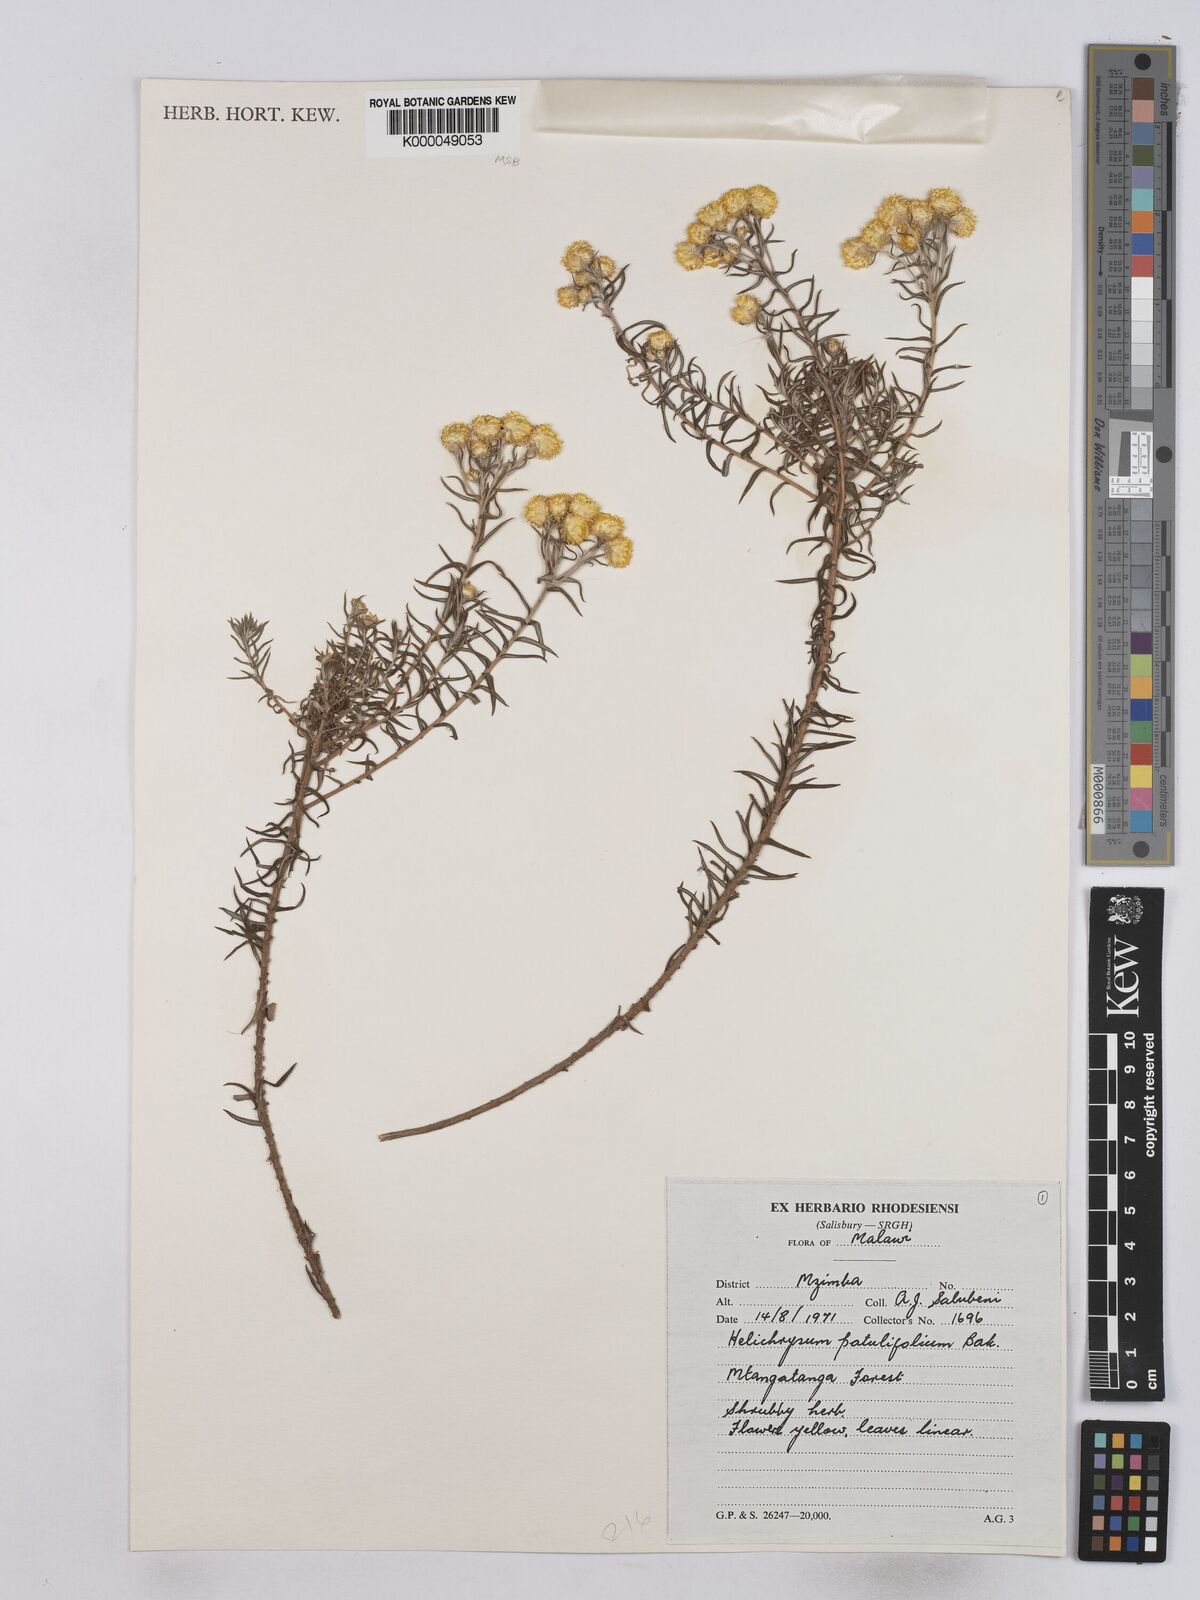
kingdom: Plantae
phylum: Tracheophyta
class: Magnoliopsida
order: Asterales
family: Asteraceae
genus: Helichrysum
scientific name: Helichrysum patulifolium
